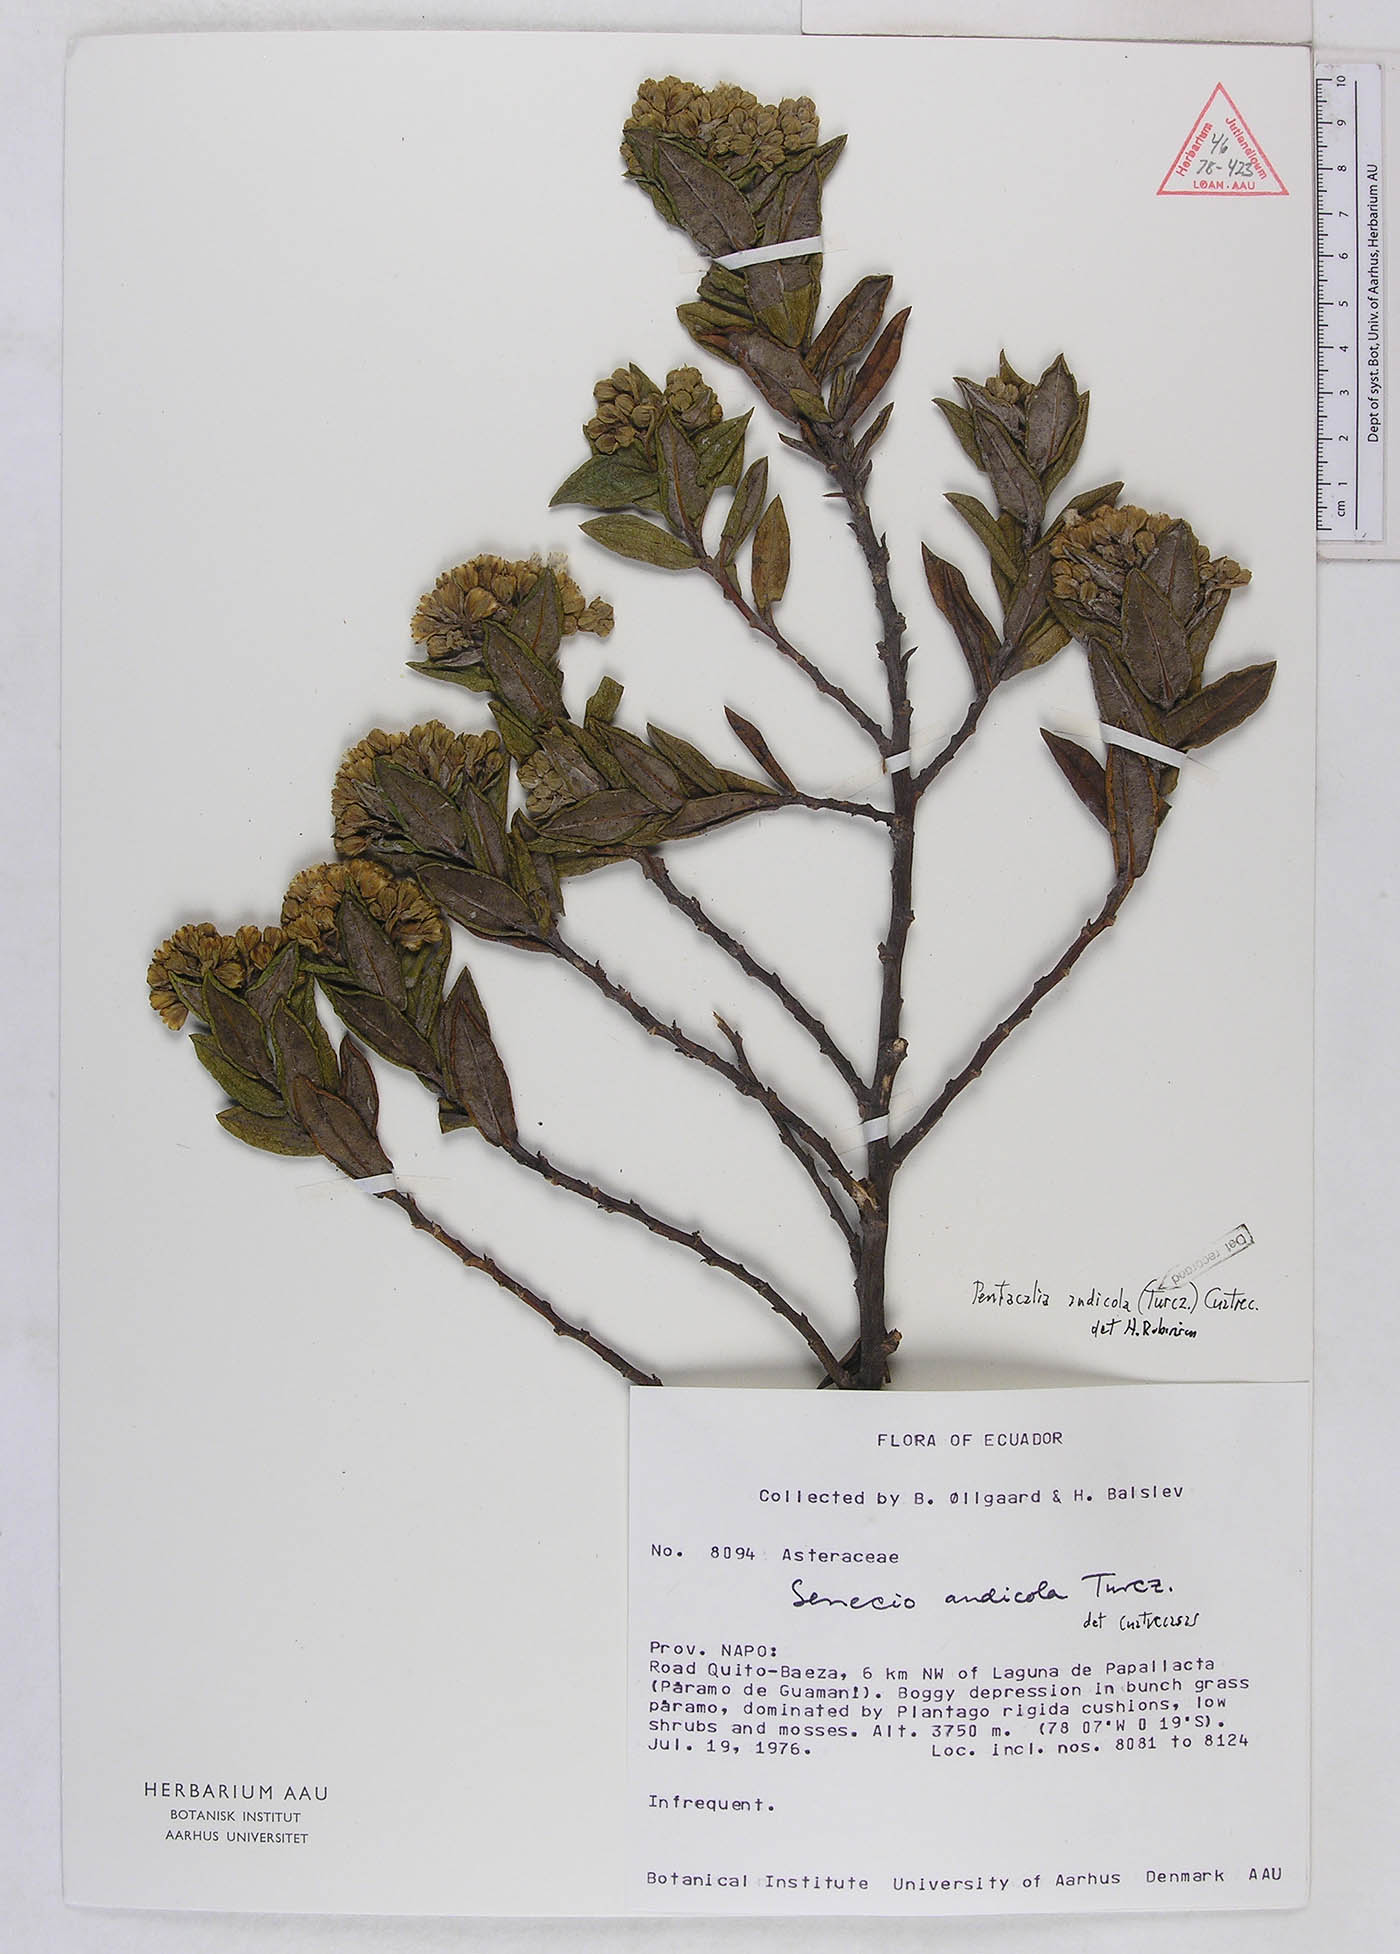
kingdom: Plantae
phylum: Tracheophyta
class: Magnoliopsida
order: Asterales
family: Asteraceae
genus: Monticalia
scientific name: Monticalia andicola
